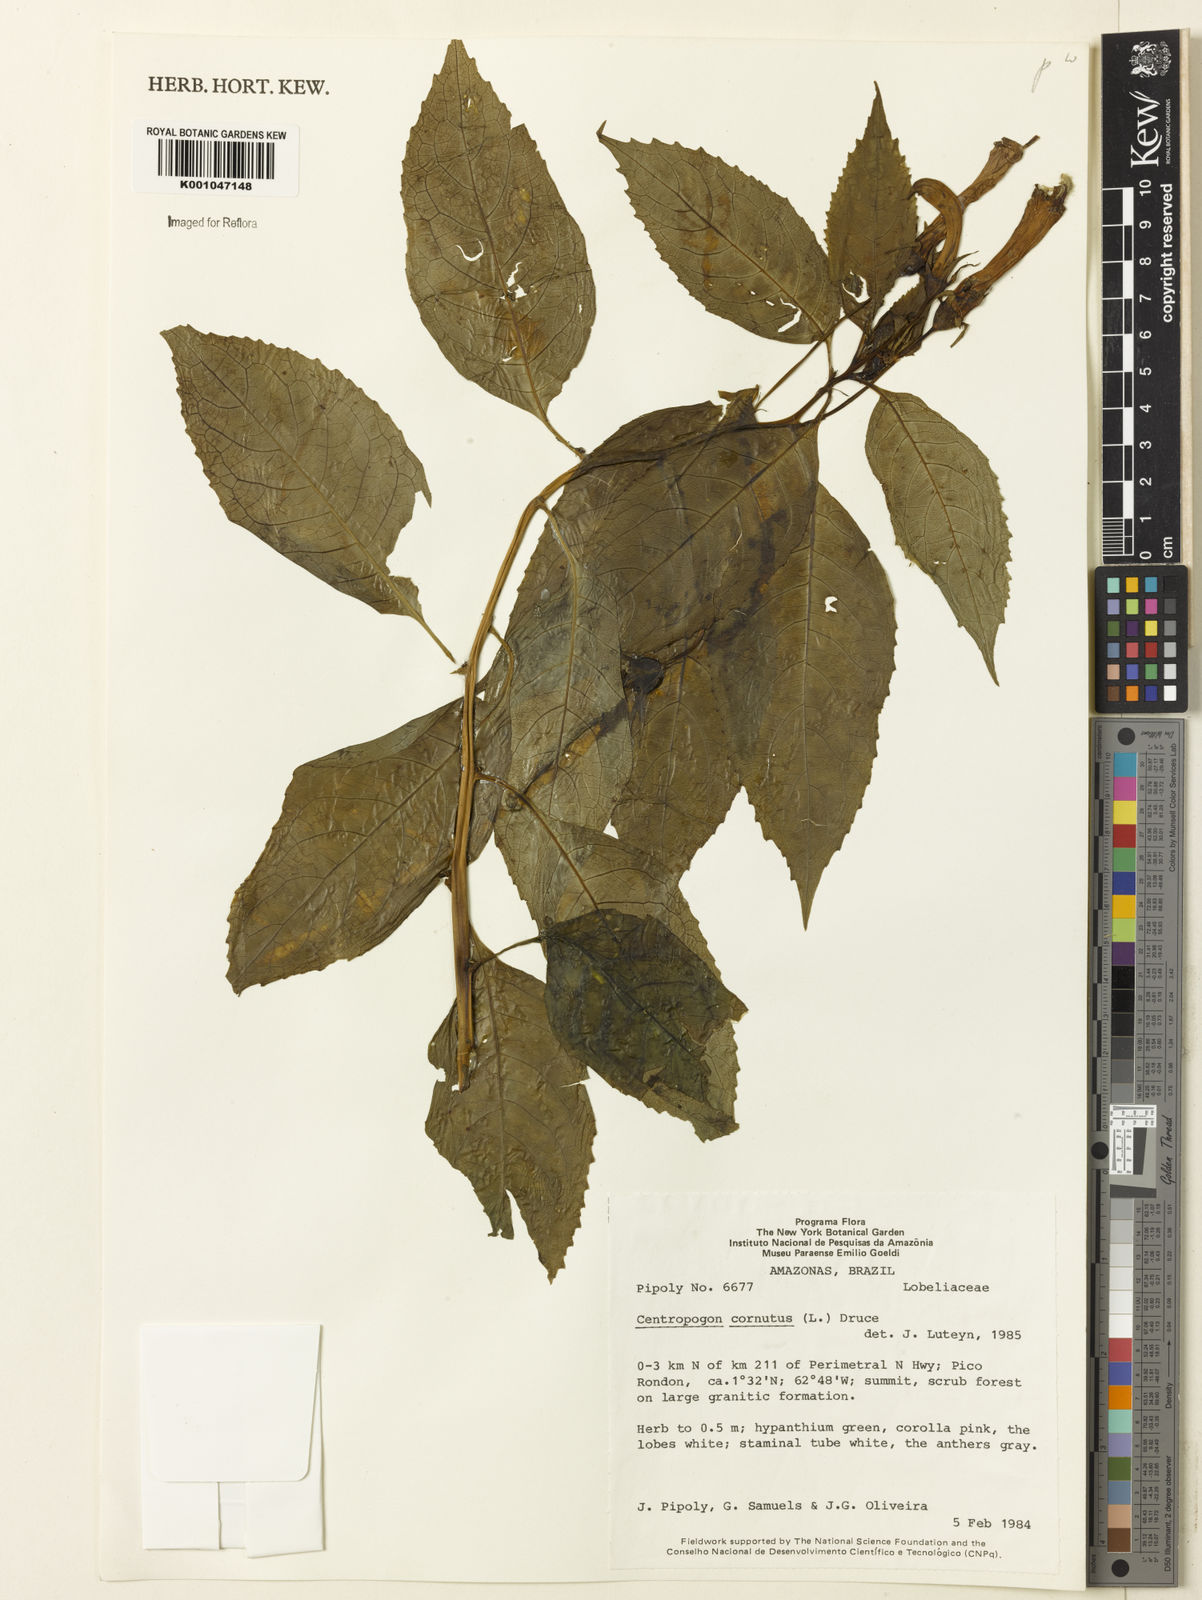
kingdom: Plantae
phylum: Tracheophyta
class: Magnoliopsida
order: Asterales
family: Campanulaceae
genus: Centropogon
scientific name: Centropogon cornutus
